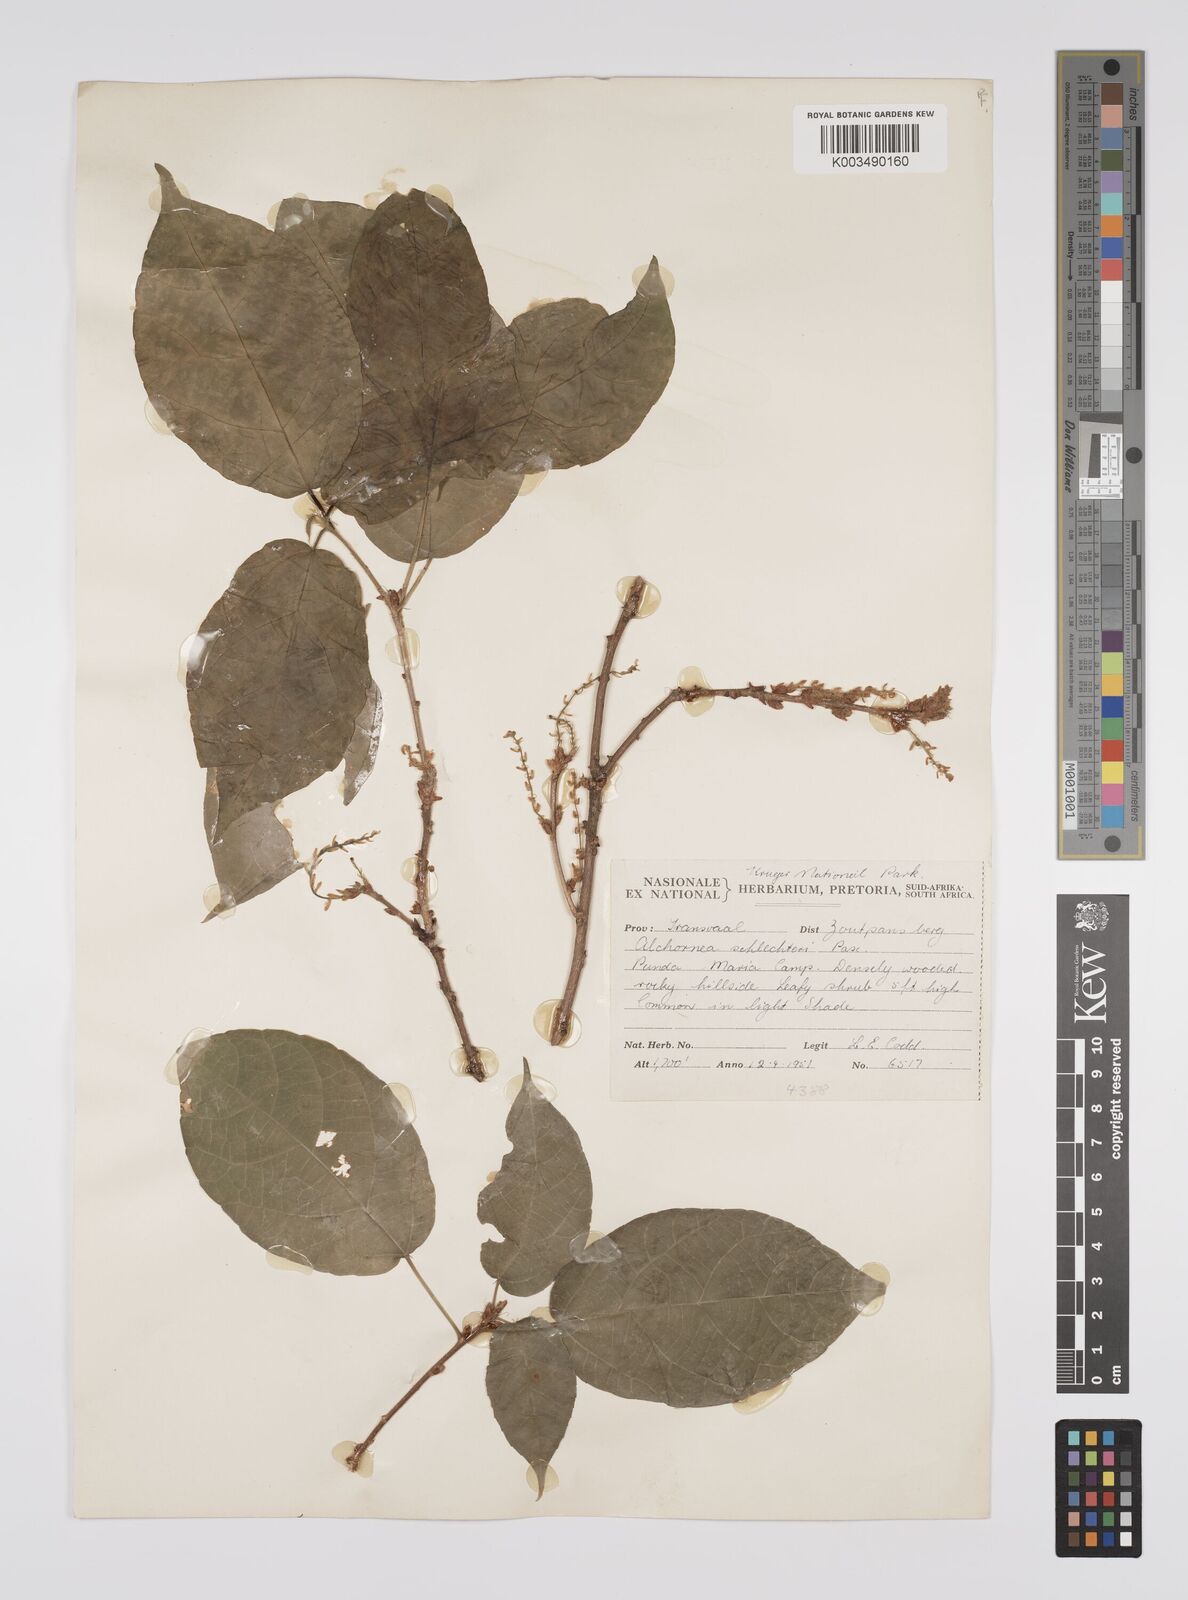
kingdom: Plantae
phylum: Tracheophyta
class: Magnoliopsida
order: Malpighiales
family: Euphorbiaceae
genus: Alchornea
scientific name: Alchornea laxiflora
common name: Lowveld bead-string
